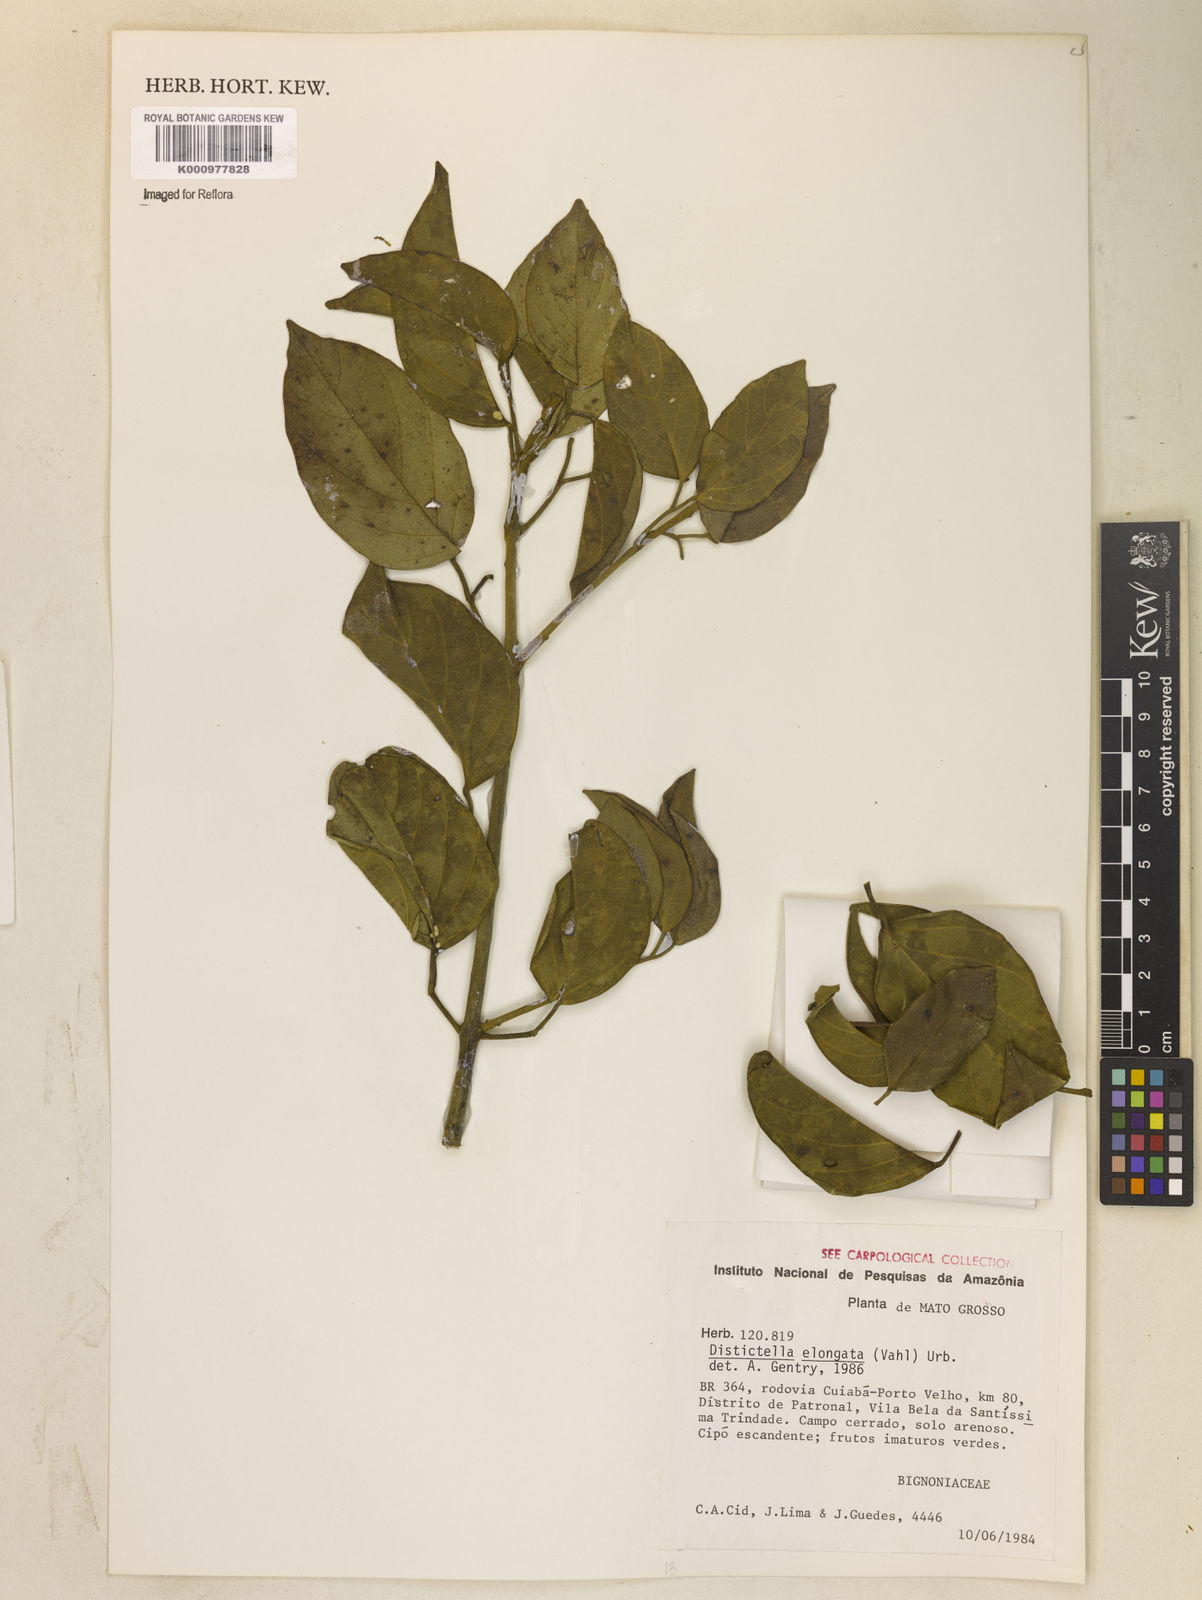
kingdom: Plantae
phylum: Tracheophyta
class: Magnoliopsida
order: Lamiales
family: Bignoniaceae
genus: Amphilophium
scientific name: Amphilophium elongatum
